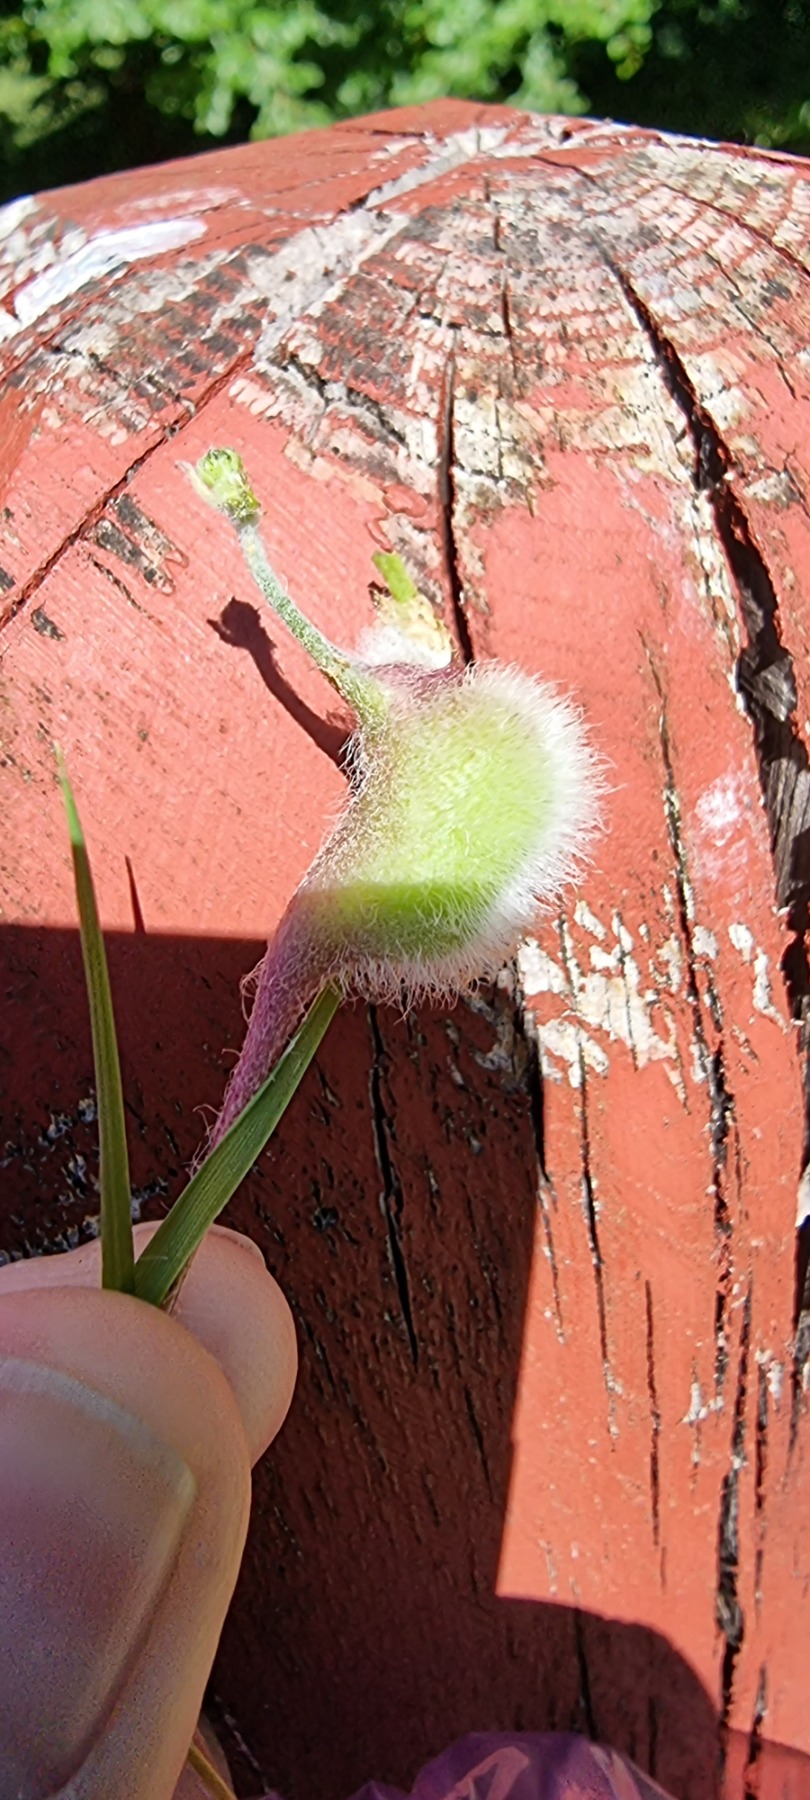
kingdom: Animalia
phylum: Arthropoda
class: Insecta
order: Hymenoptera
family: Cynipidae
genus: Aulacidea
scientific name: Aulacidea hieracii
